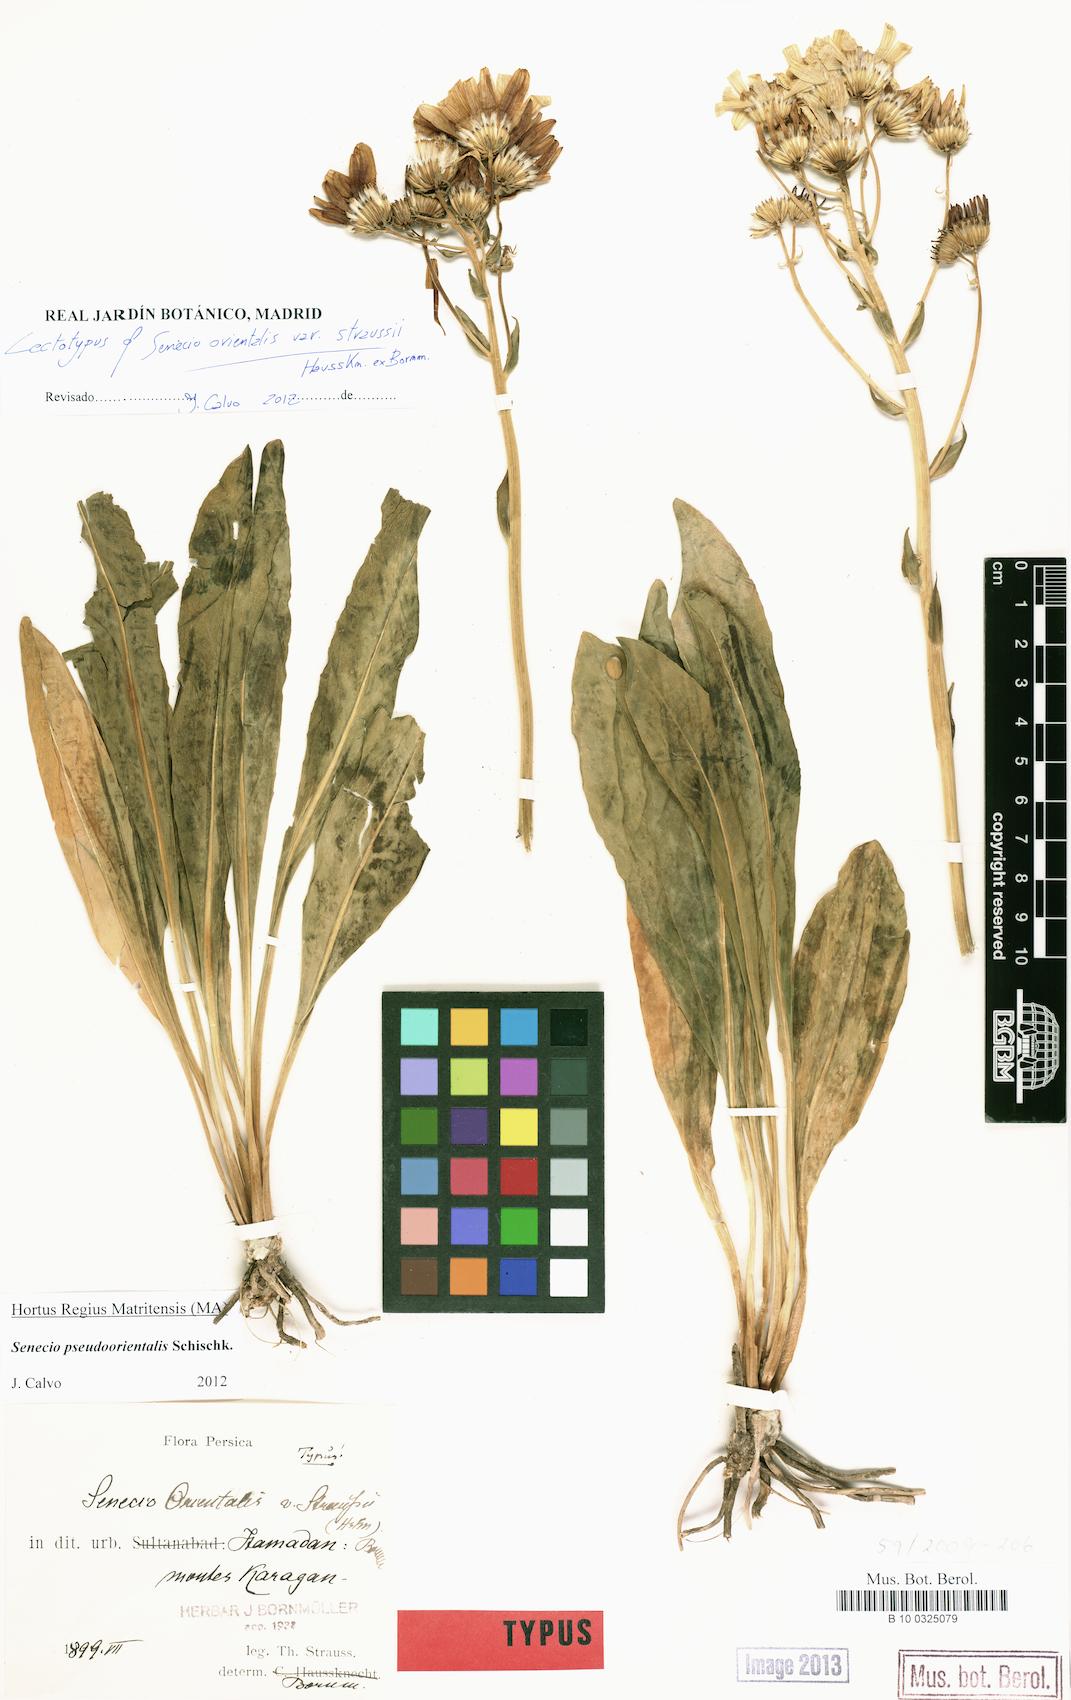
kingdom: Plantae
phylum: Tracheophyta
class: Magnoliopsida
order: Asterales
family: Asteraceae
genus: Senecio
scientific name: Senecio pseudoorientalis
